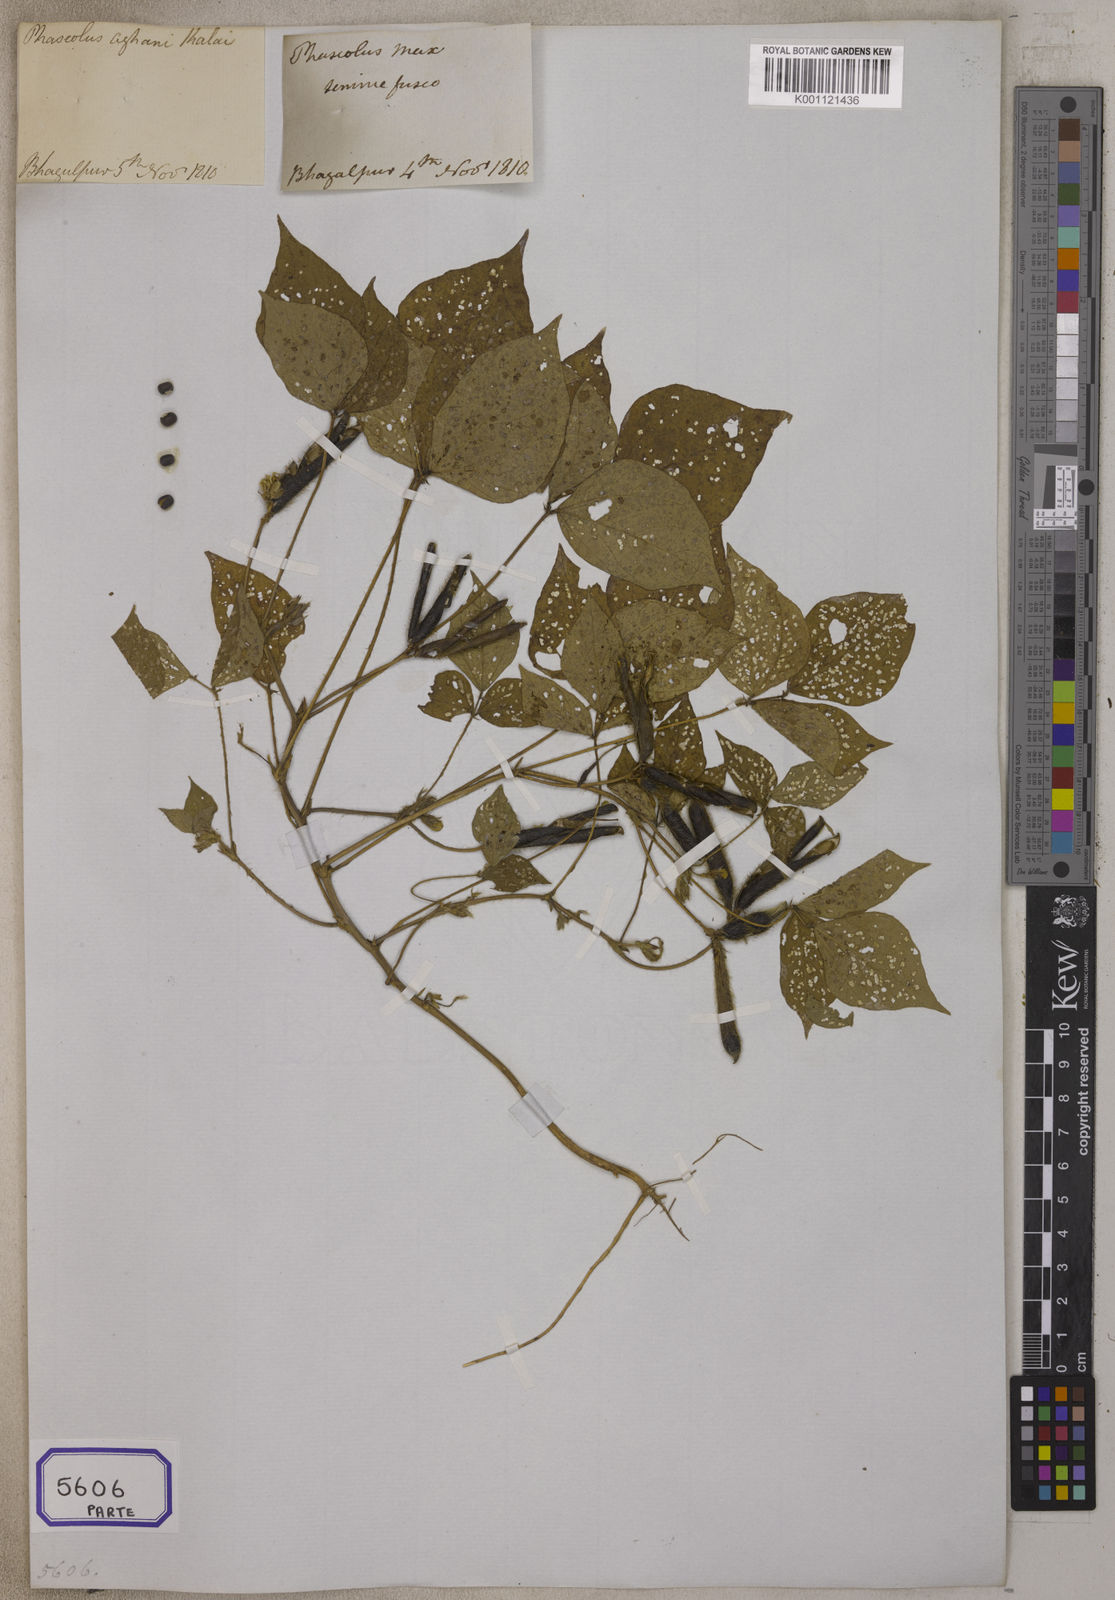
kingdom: Plantae
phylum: Tracheophyta
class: Magnoliopsida
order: Fabales
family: Fabaceae
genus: Glycine
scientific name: Glycine max
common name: Soya-bean
